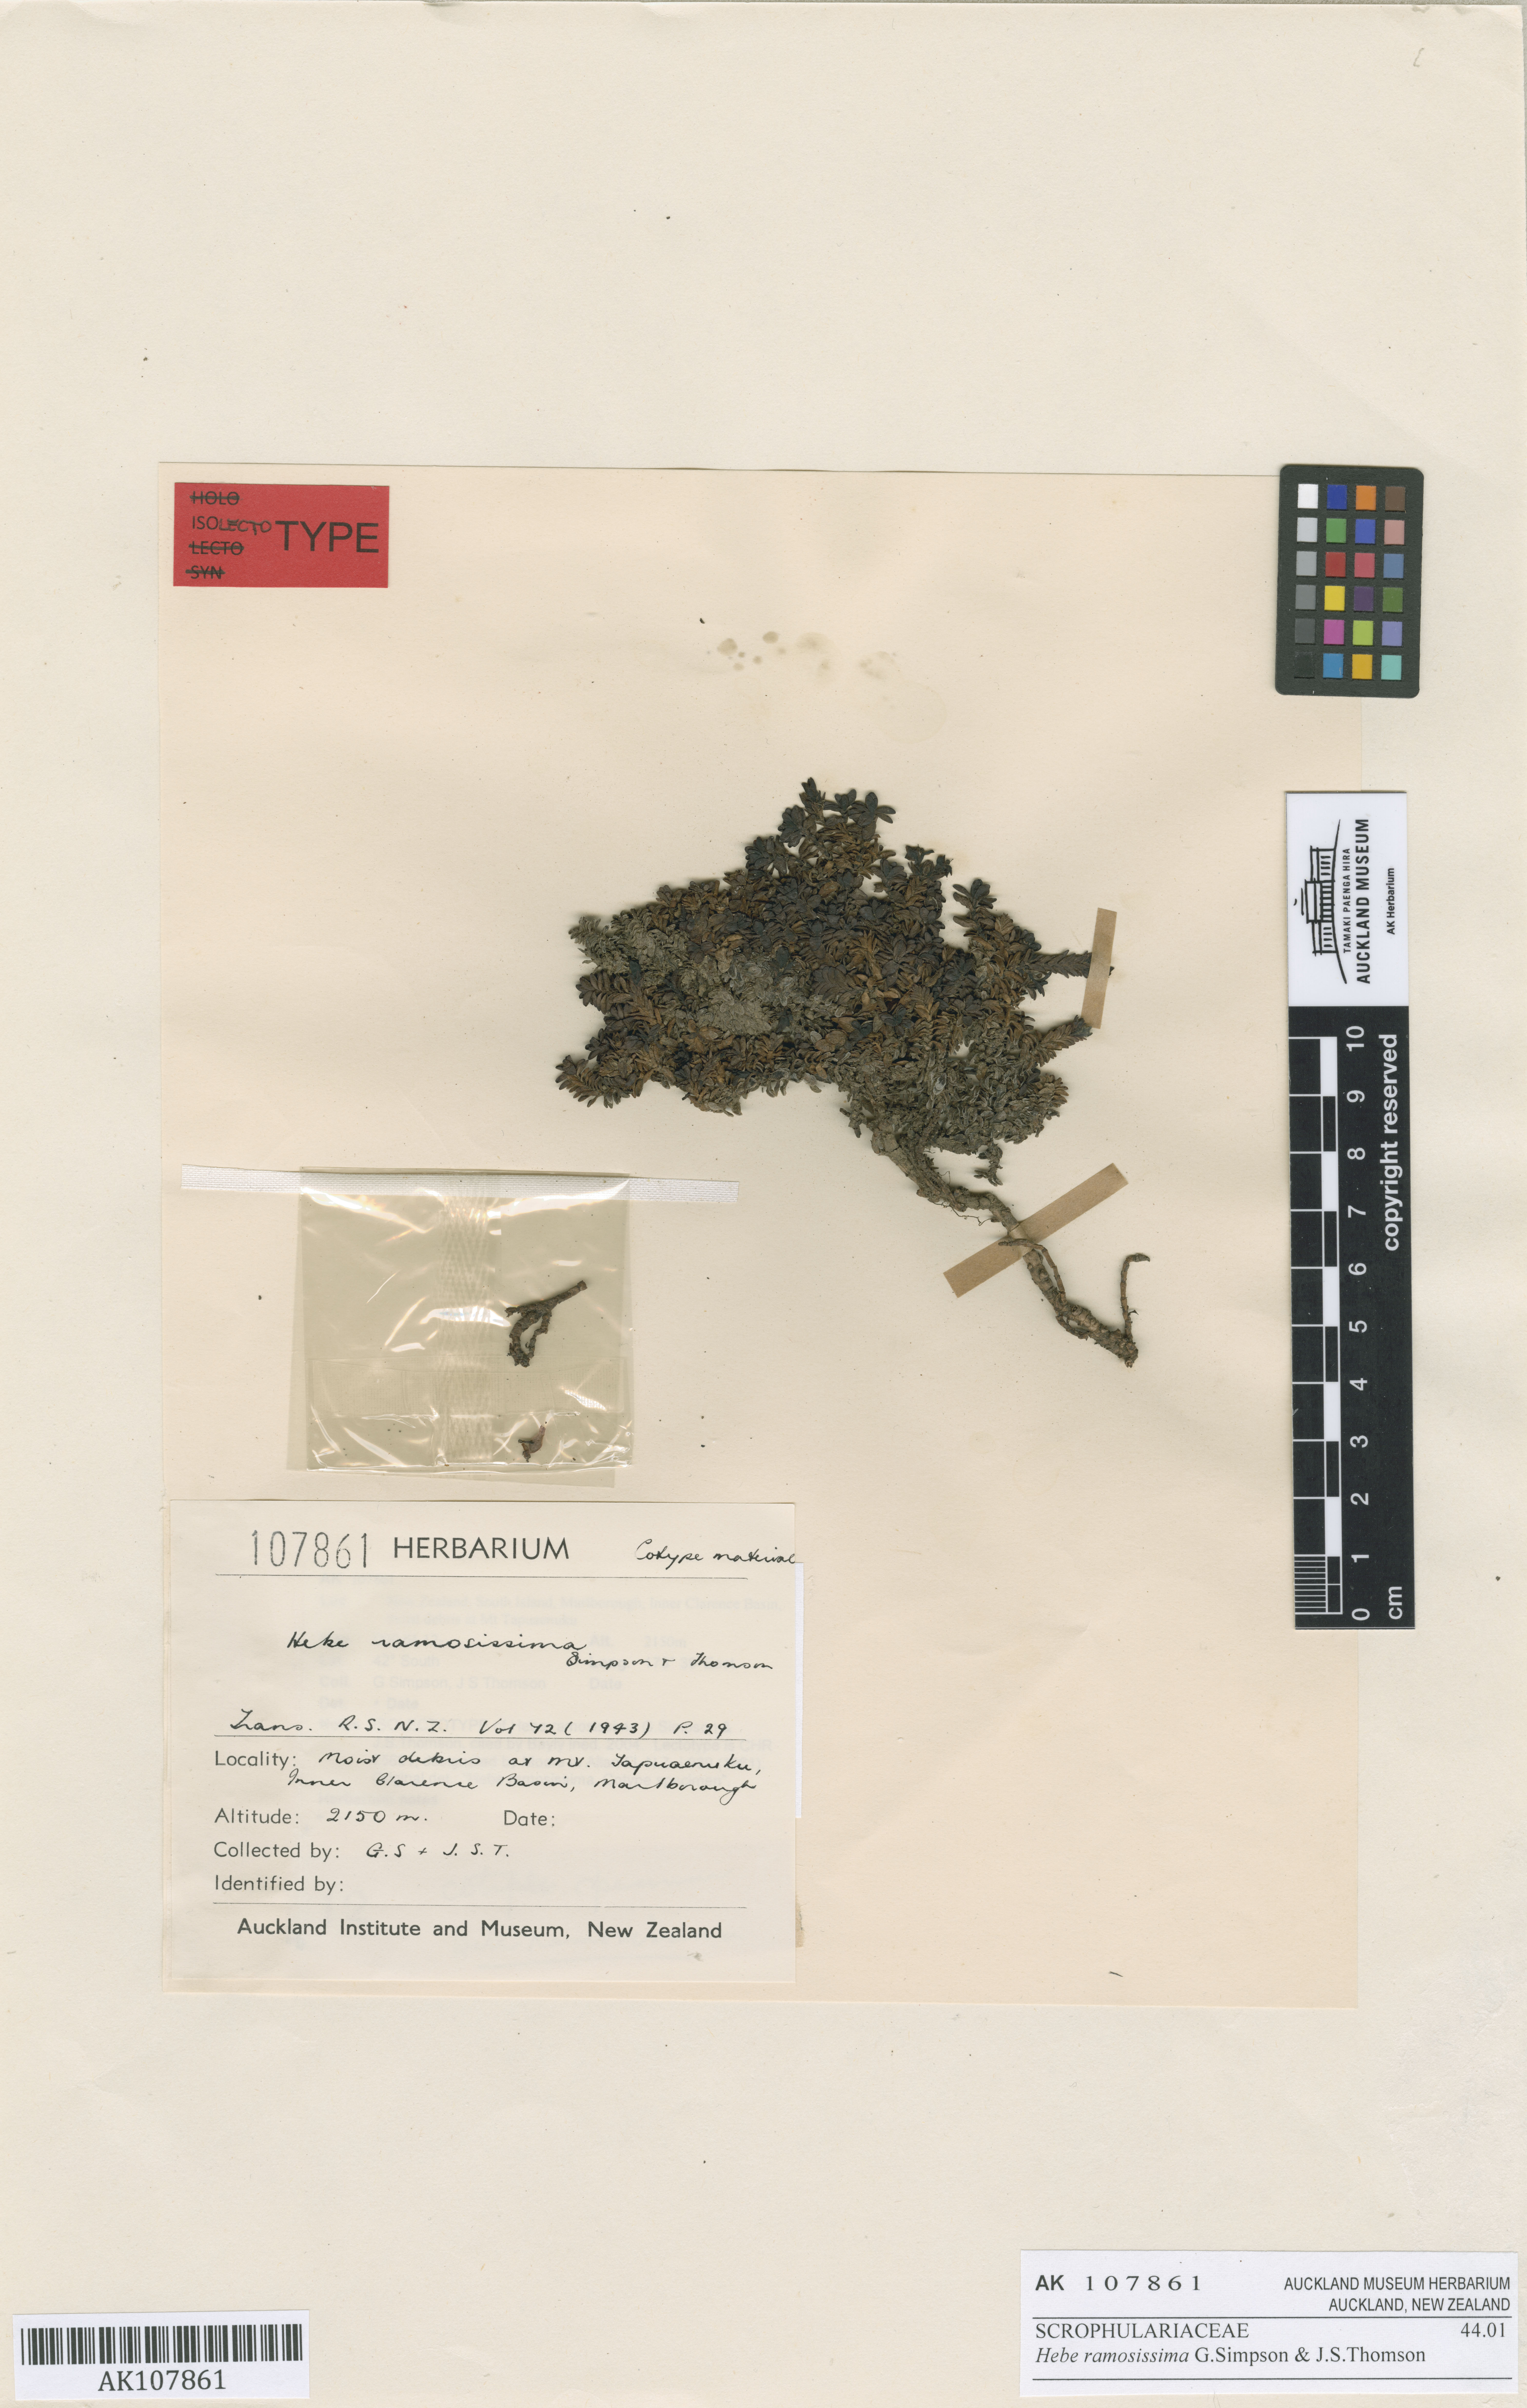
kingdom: Plantae
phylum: Tracheophyta
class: Magnoliopsida
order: Lamiales
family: Plantaginaceae
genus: Veronica
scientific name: Veronica kellowiae
